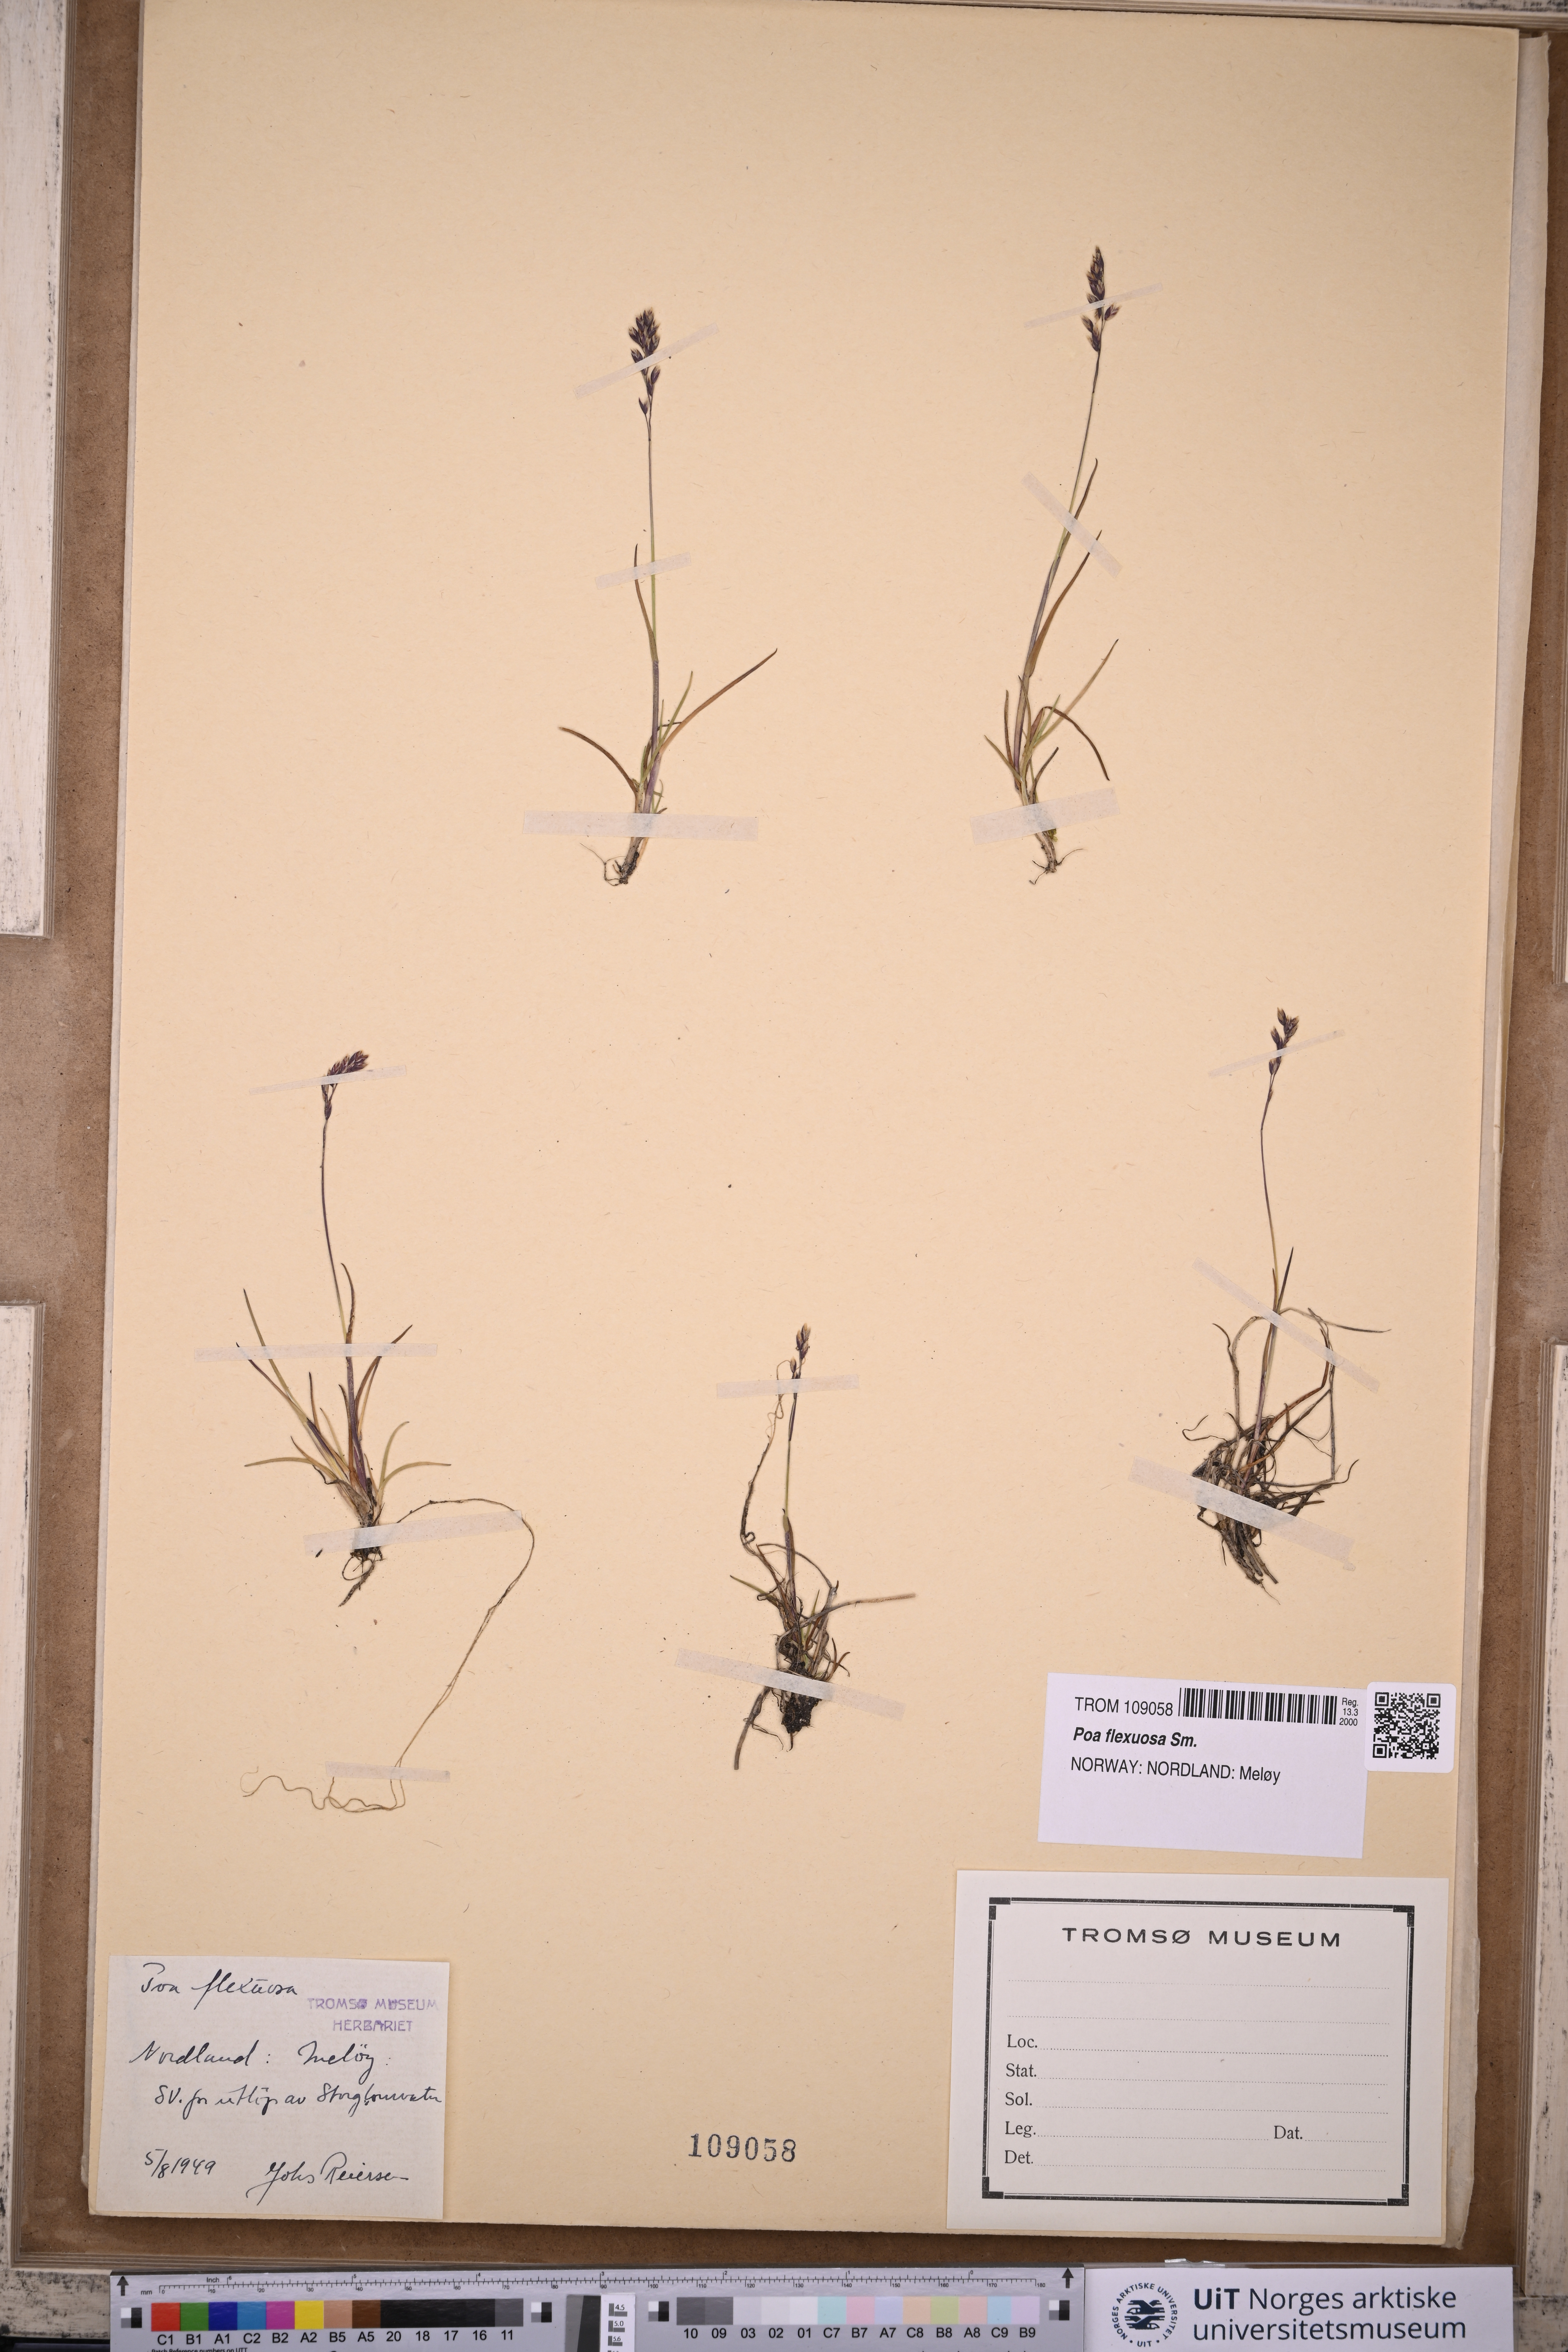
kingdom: Plantae
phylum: Tracheophyta
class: Liliopsida
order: Poales
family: Poaceae
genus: Poa
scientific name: Poa flexuosa
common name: Wavy meadow-grass
